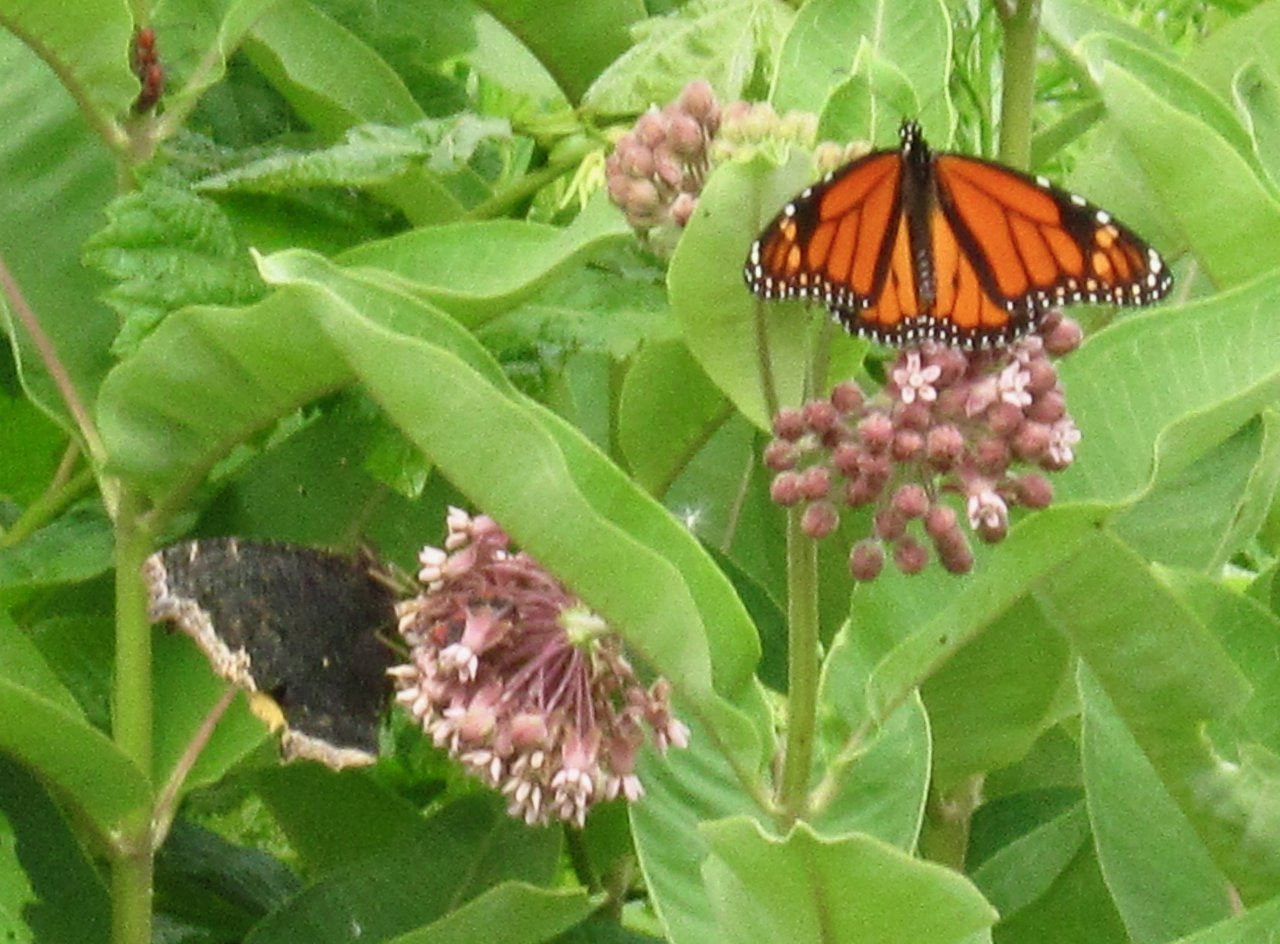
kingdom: Animalia
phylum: Arthropoda
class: Insecta
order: Lepidoptera
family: Nymphalidae
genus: Danaus
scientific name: Danaus plexippus
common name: Monarch
